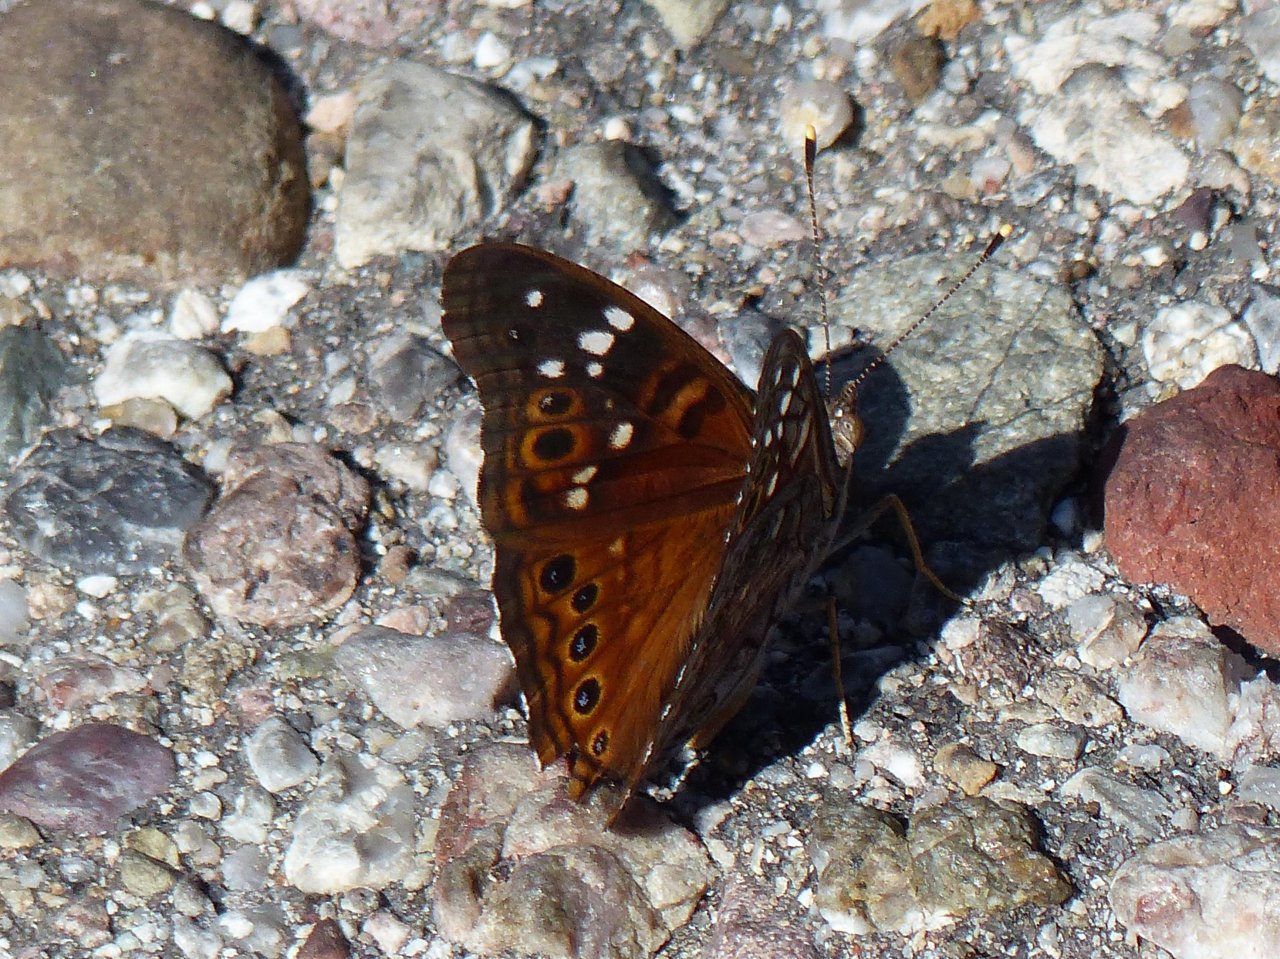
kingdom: Animalia
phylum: Arthropoda
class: Insecta
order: Lepidoptera
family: Nymphalidae
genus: Asterocampa
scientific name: Asterocampa leilia
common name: Empress Leilia
